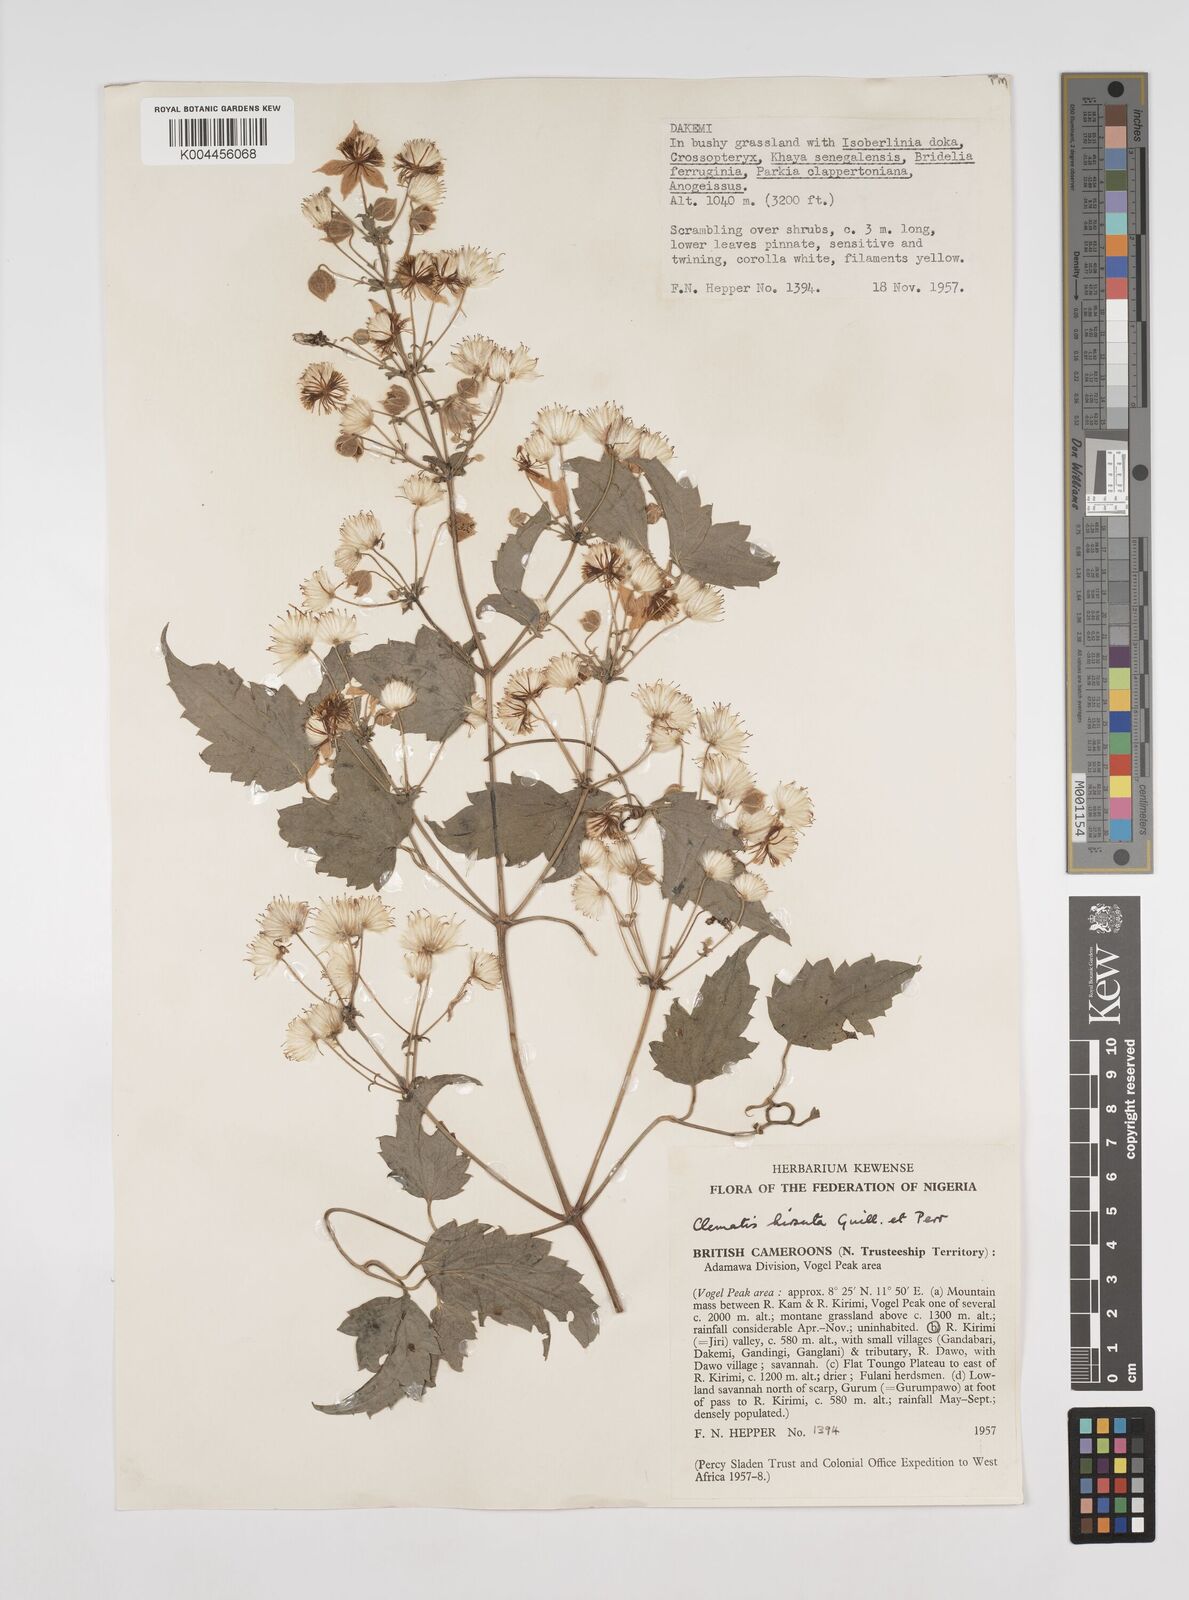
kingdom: Plantae
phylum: Tracheophyta
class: Magnoliopsida
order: Ranunculales
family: Ranunculaceae
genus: Clematis
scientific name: Clematis hirsuta
